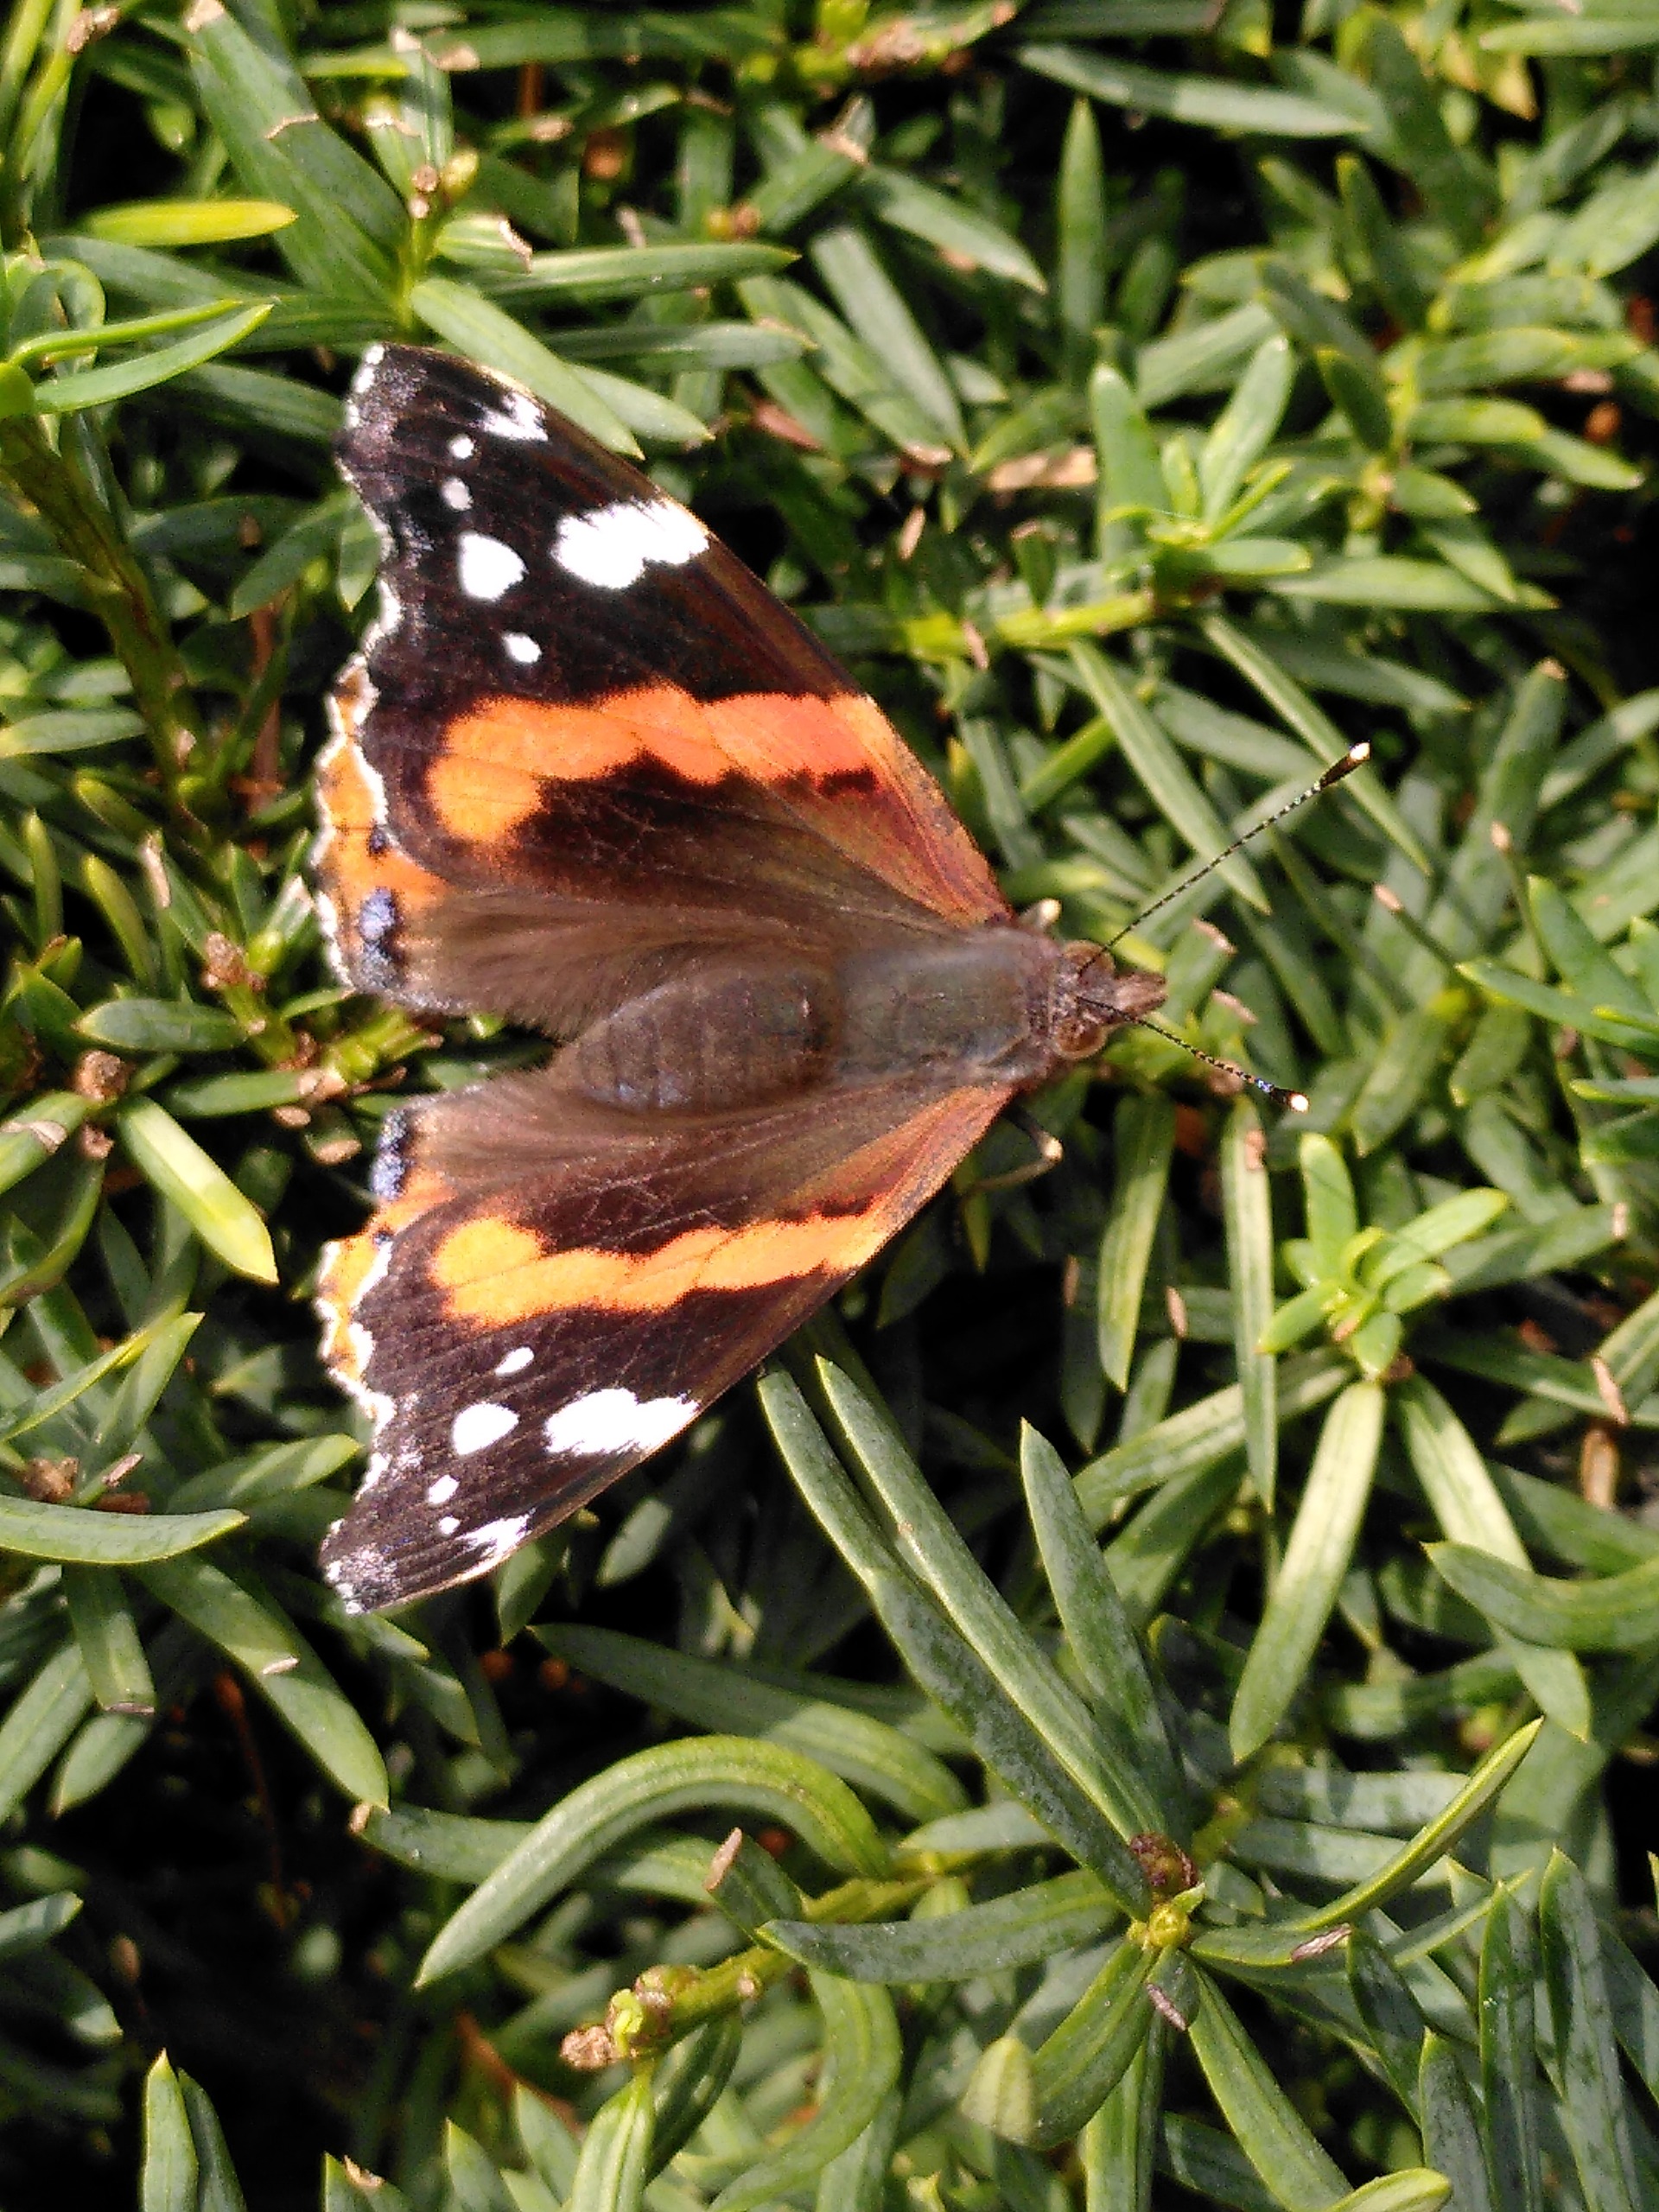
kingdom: Animalia
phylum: Arthropoda
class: Insecta
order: Lepidoptera
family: Nymphalidae
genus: Vanessa
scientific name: Vanessa atalanta
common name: Admiral
